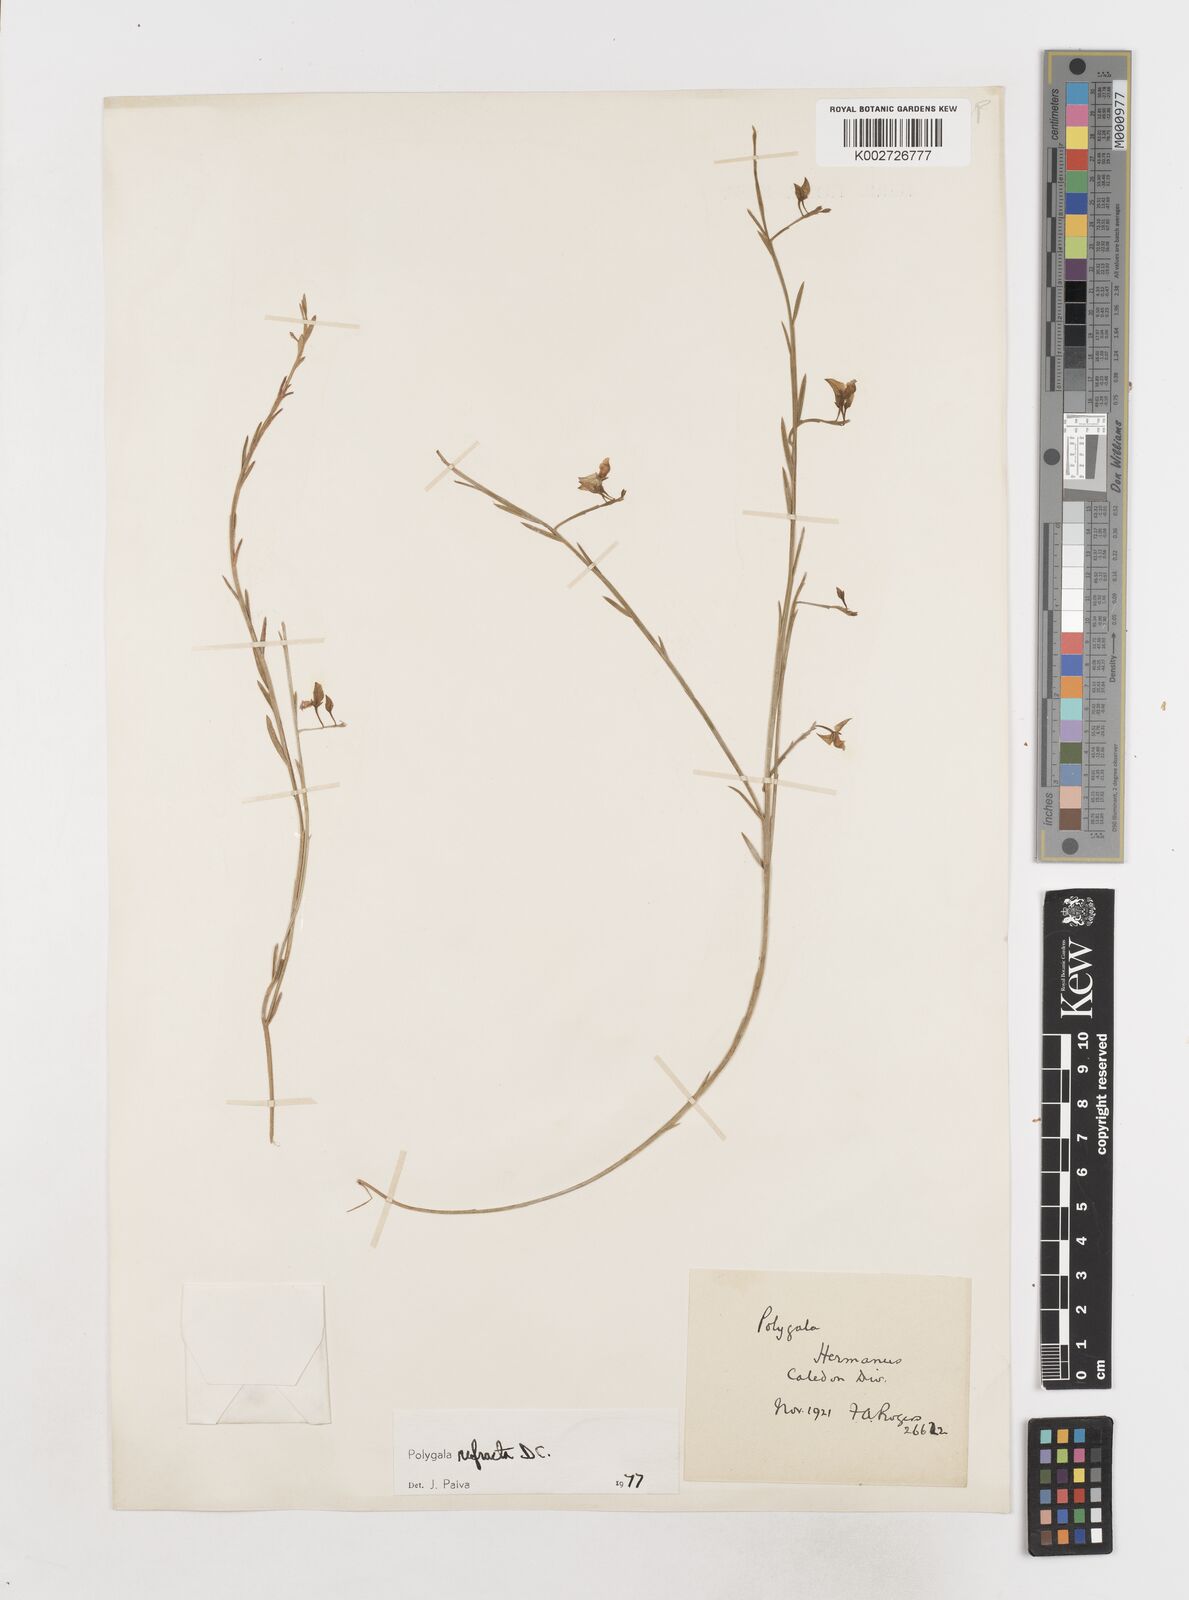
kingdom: Plantae
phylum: Tracheophyta
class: Magnoliopsida
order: Fabales
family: Polygalaceae
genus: Polygala
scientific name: Polygala refracta
